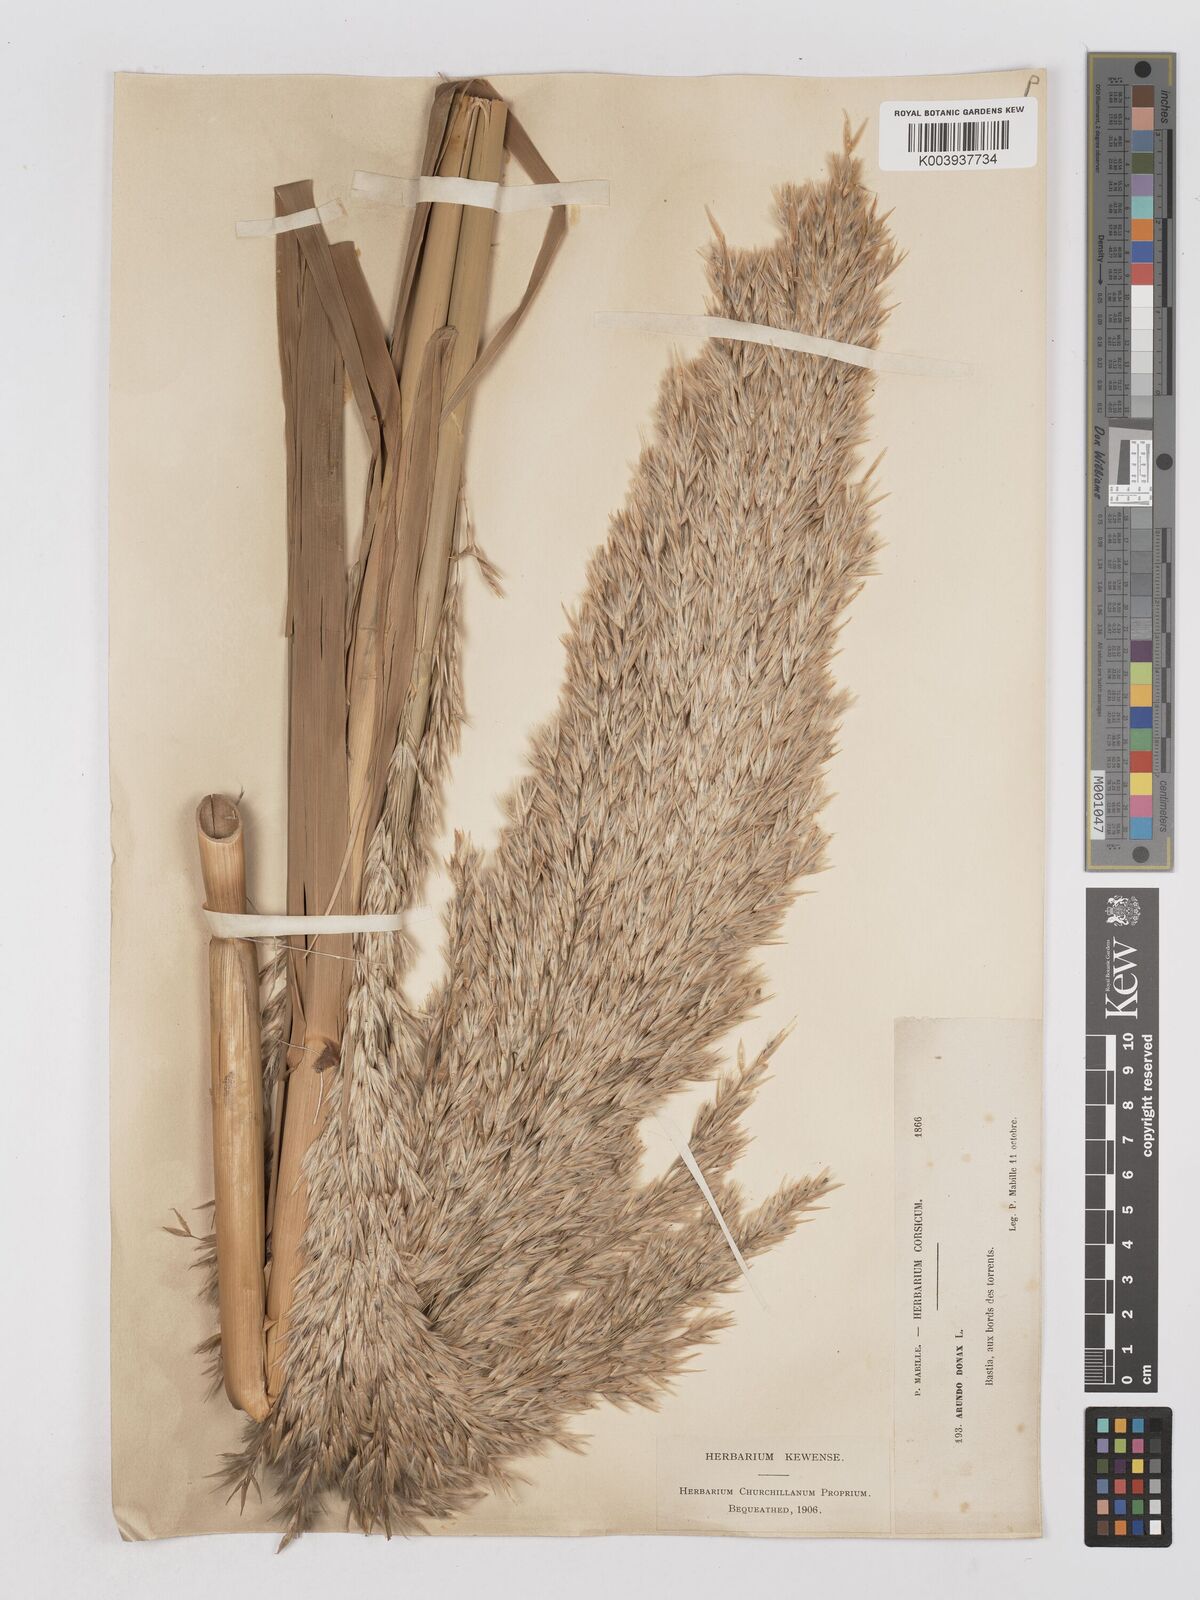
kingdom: Plantae
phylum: Tracheophyta
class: Liliopsida
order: Poales
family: Poaceae
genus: Arundo
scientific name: Arundo donax
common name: Giant reed
